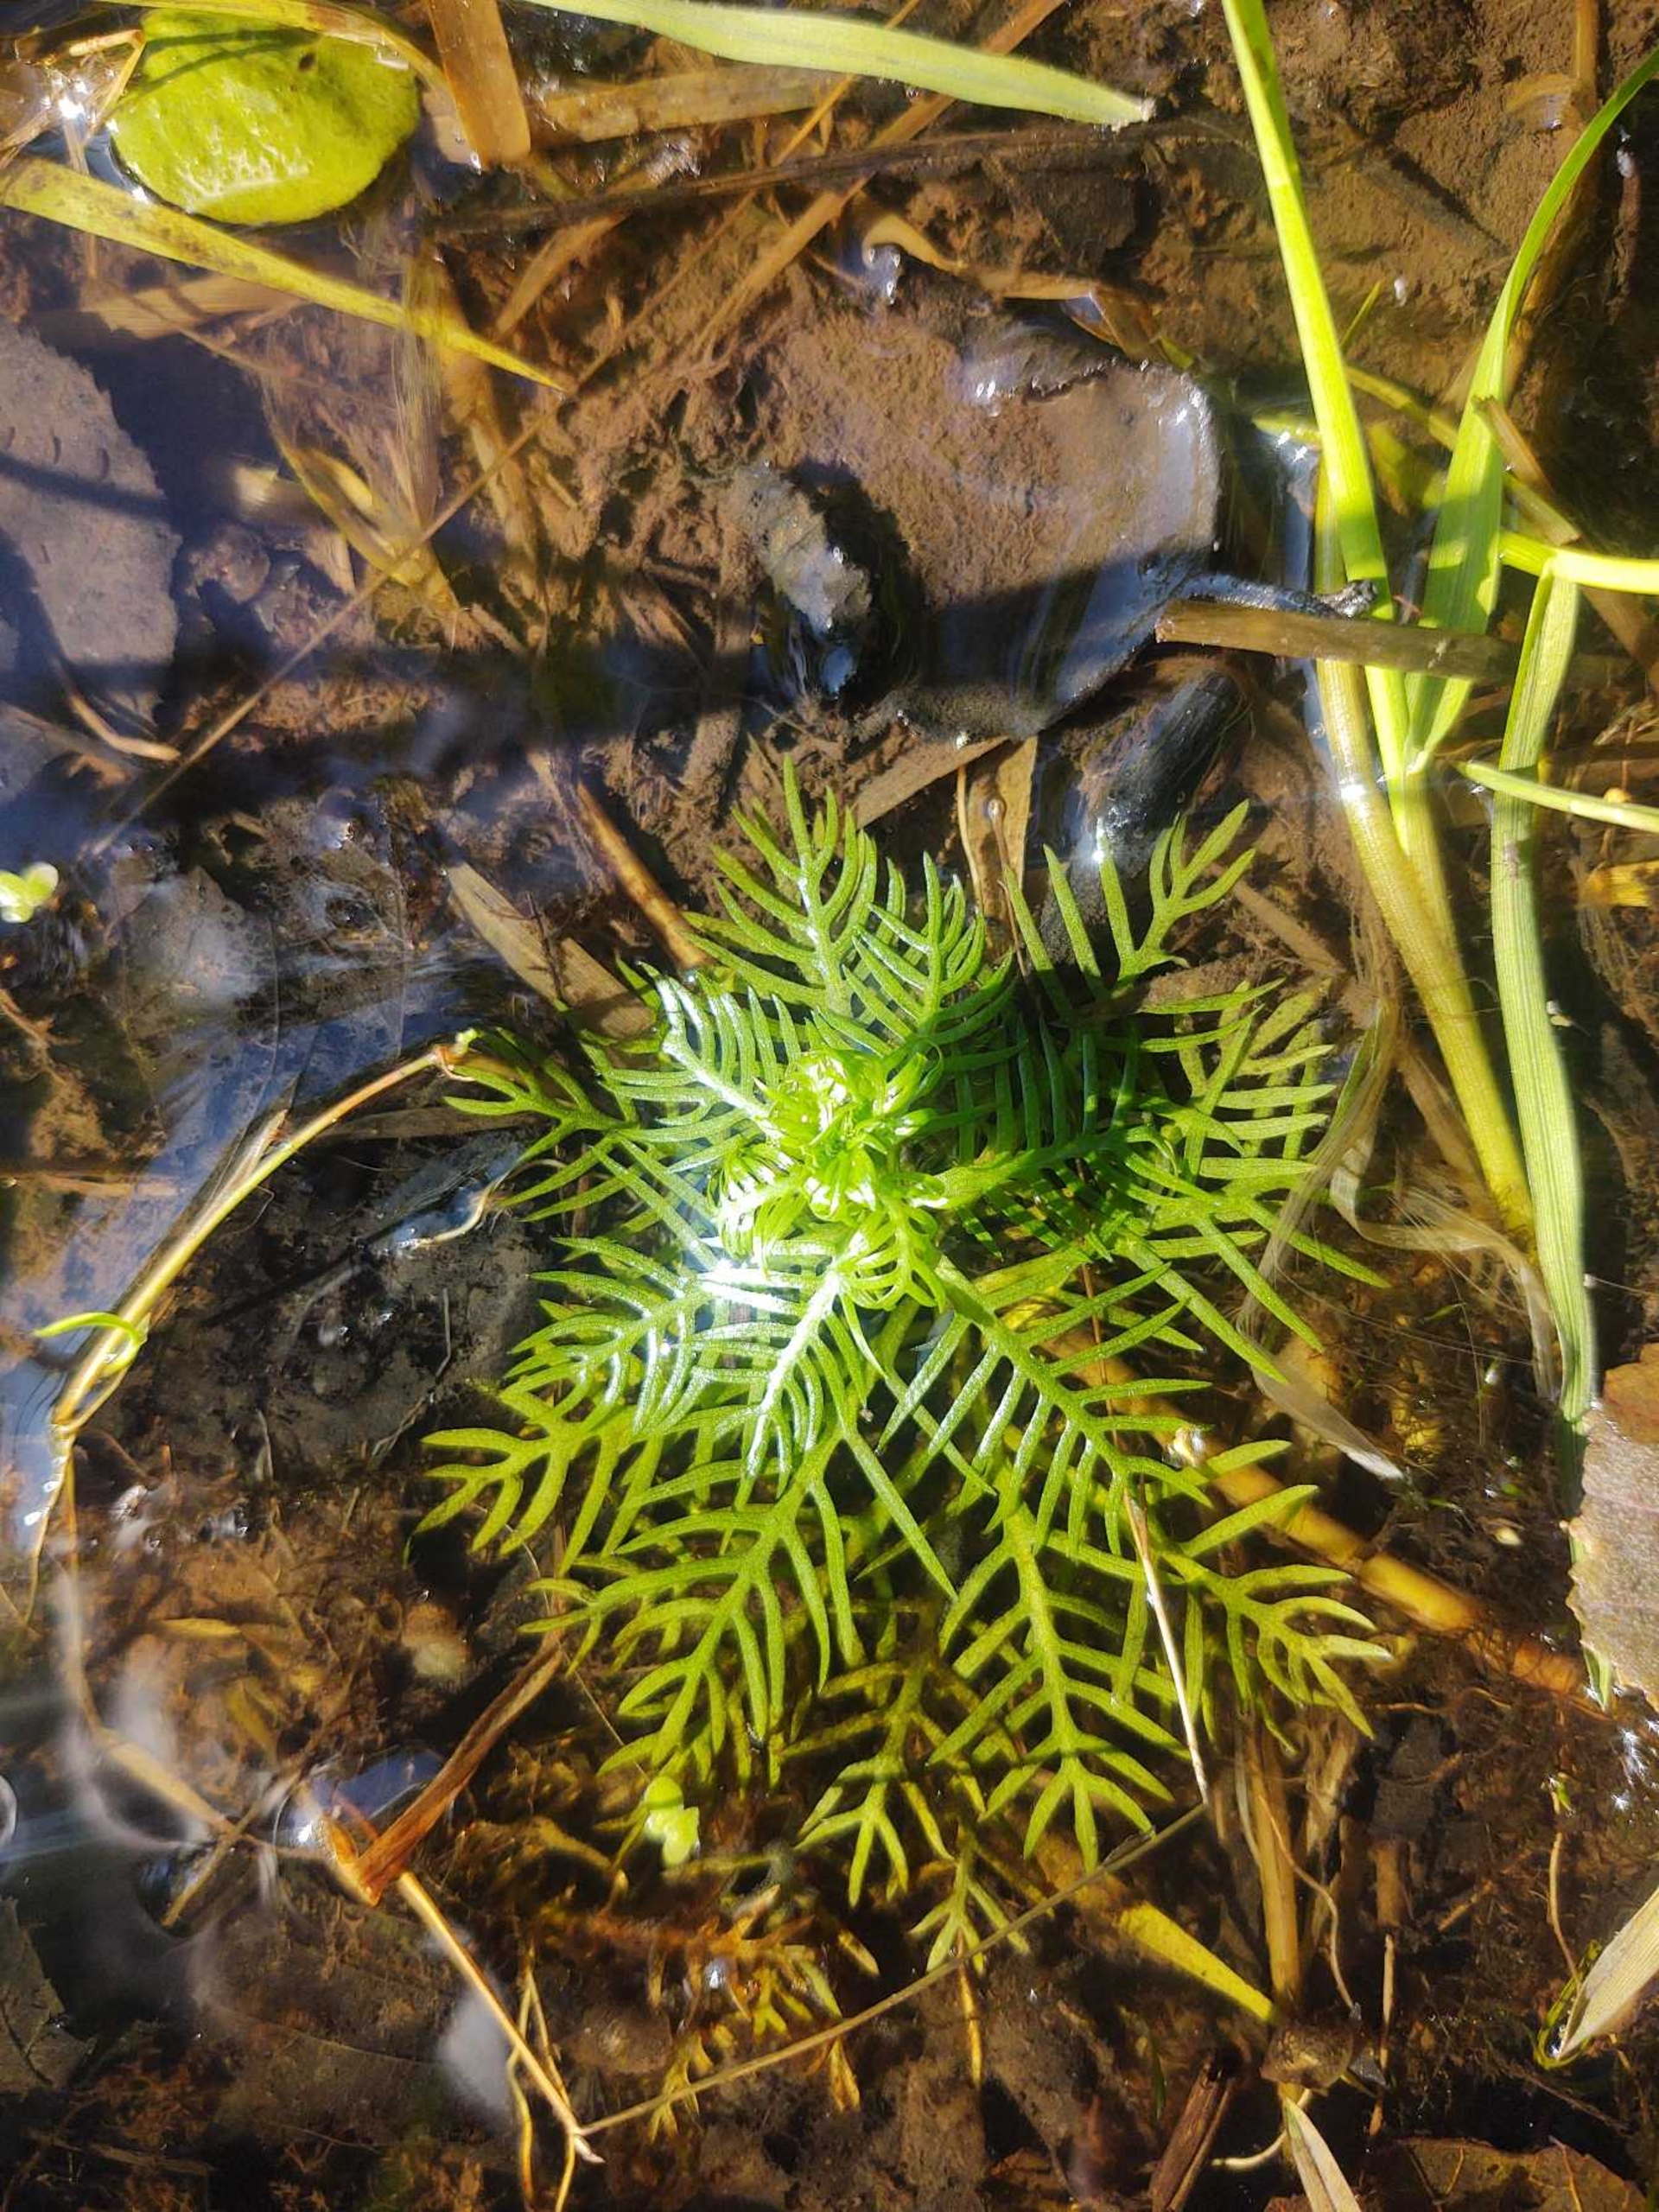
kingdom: Plantae
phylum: Tracheophyta
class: Magnoliopsida
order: Ericales
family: Primulaceae
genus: Hottonia
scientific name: Hottonia palustris
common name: Vandrøllike
